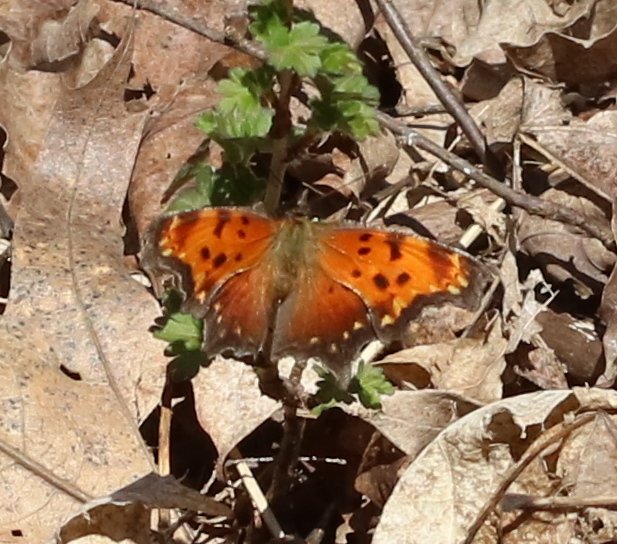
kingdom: Animalia
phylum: Arthropoda
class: Insecta
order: Lepidoptera
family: Nymphalidae
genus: Polygonia
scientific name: Polygonia progne
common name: Gray Comma
